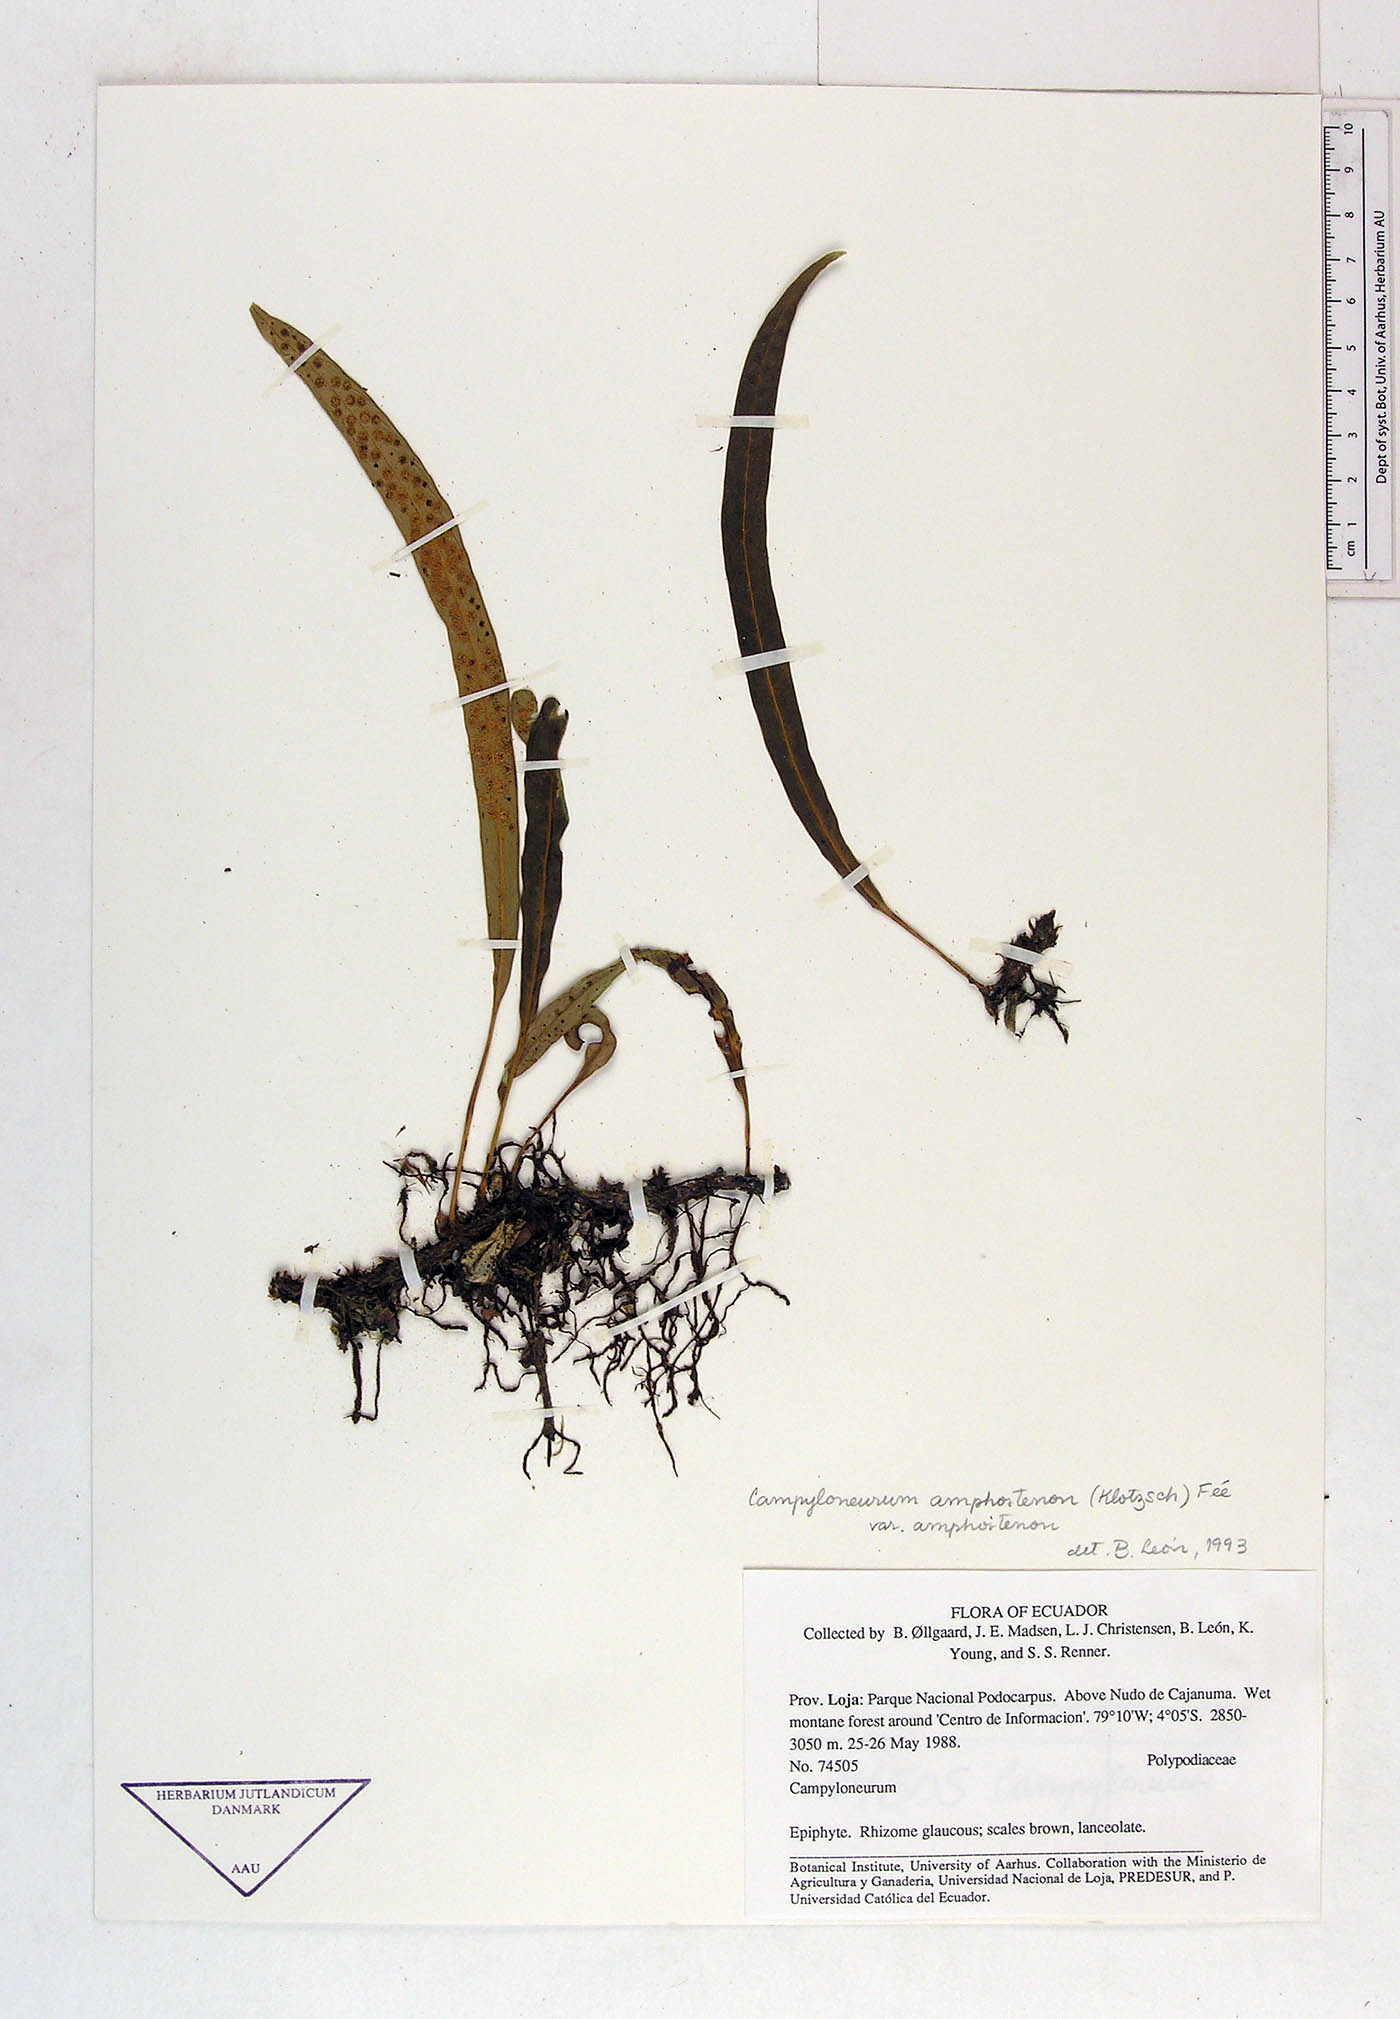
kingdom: Plantae
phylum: Tracheophyta
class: Polypodiopsida
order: Polypodiales
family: Polypodiaceae
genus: Campyloneurum
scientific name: Campyloneurum
